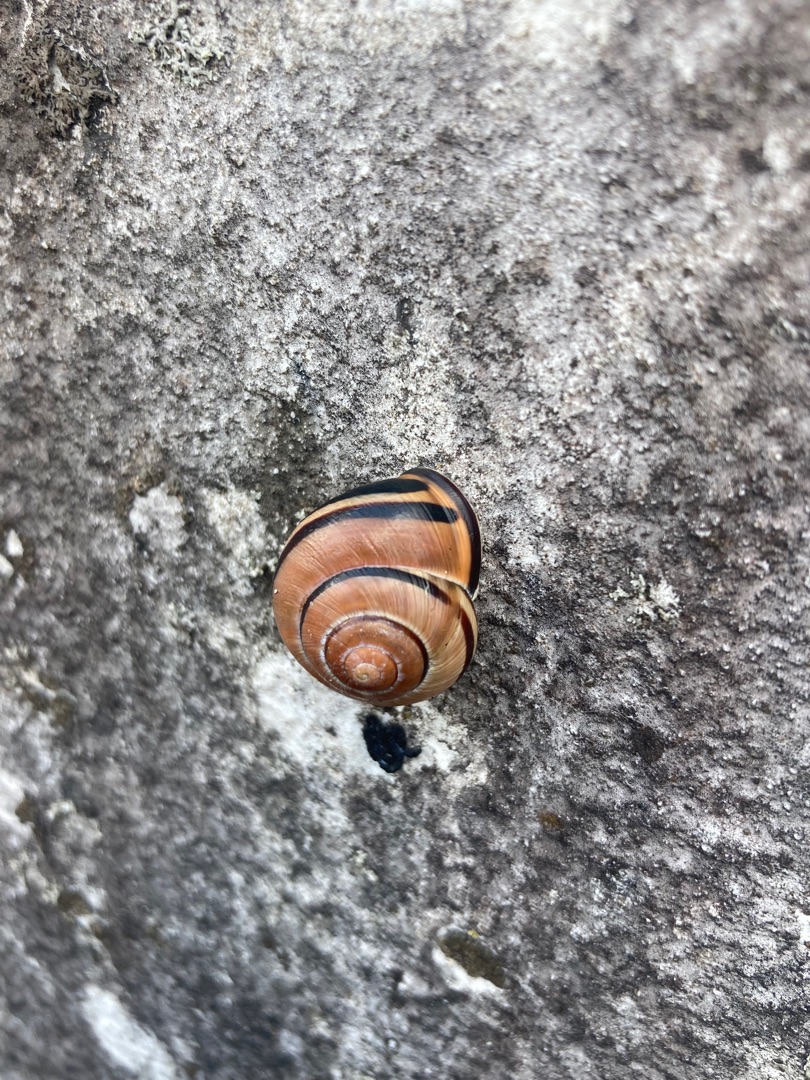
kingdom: Animalia
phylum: Mollusca
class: Gastropoda
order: Stylommatophora
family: Helicidae
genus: Cepaea
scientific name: Cepaea nemoralis
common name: Lundsnegl
